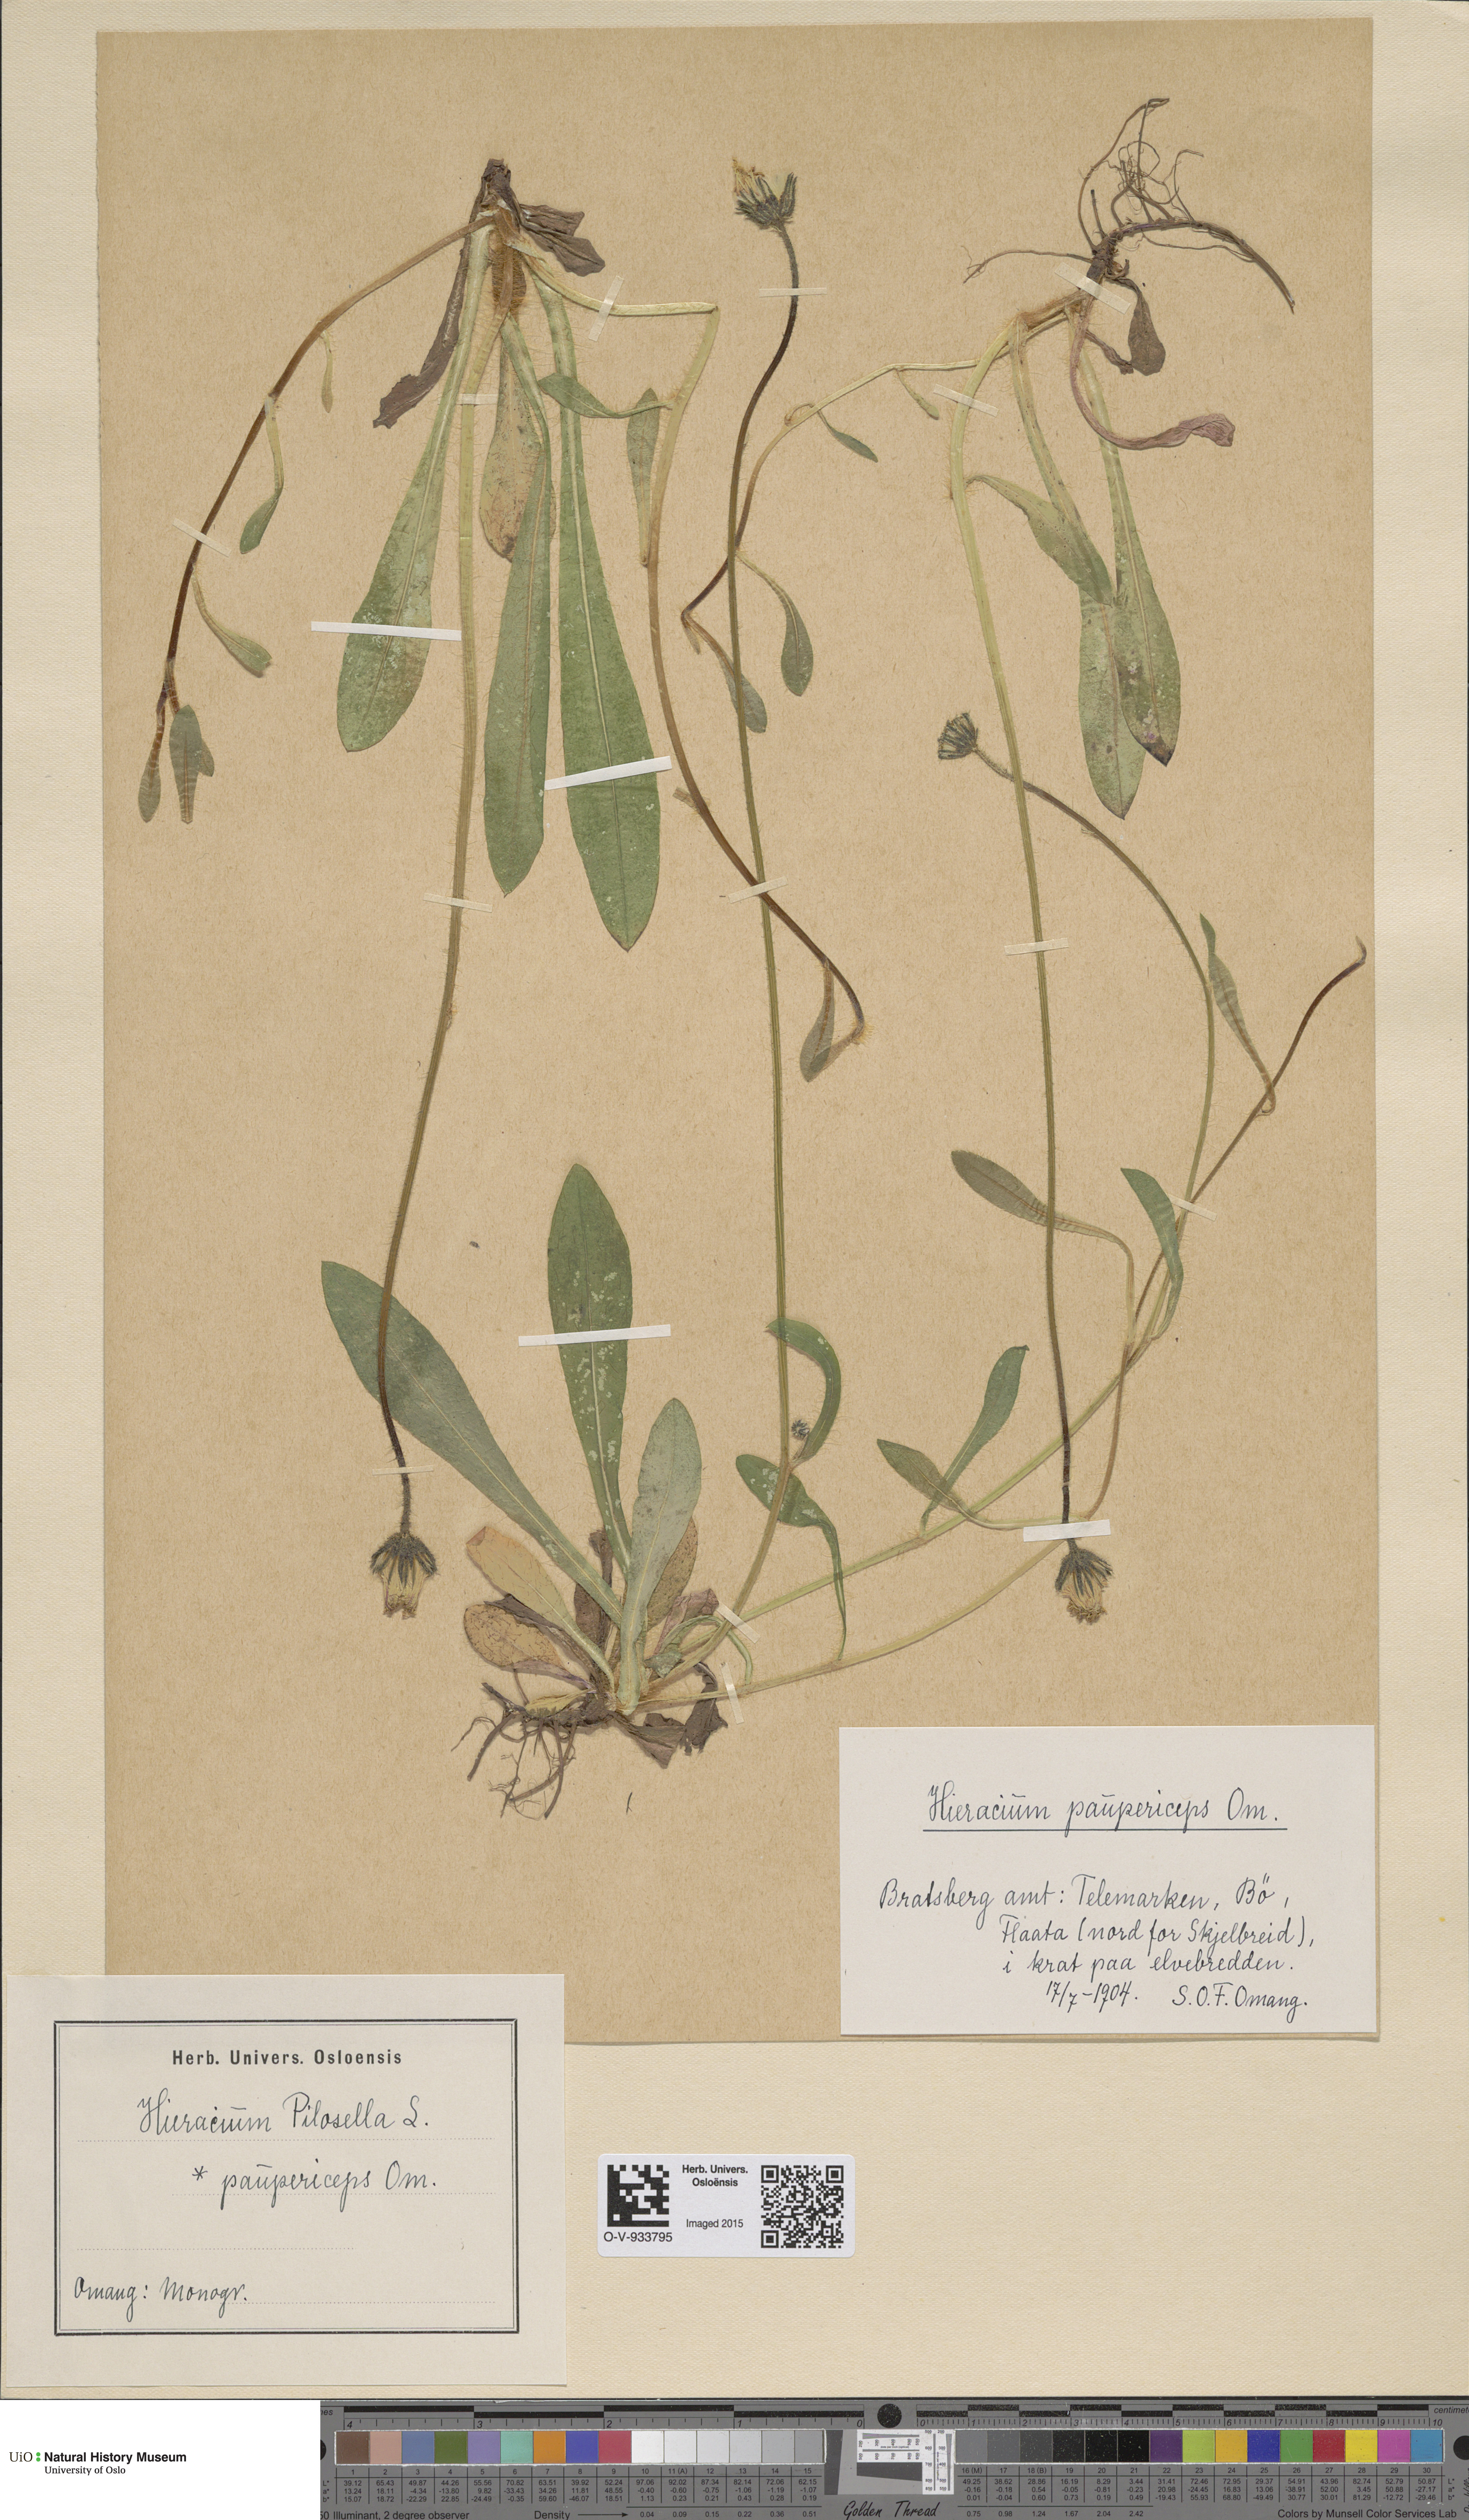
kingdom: Plantae
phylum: Tracheophyta
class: Magnoliopsida
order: Asterales
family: Asteraceae
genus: Pilosella
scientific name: Pilosella officinarum
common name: Mouse-ear hawkweed
